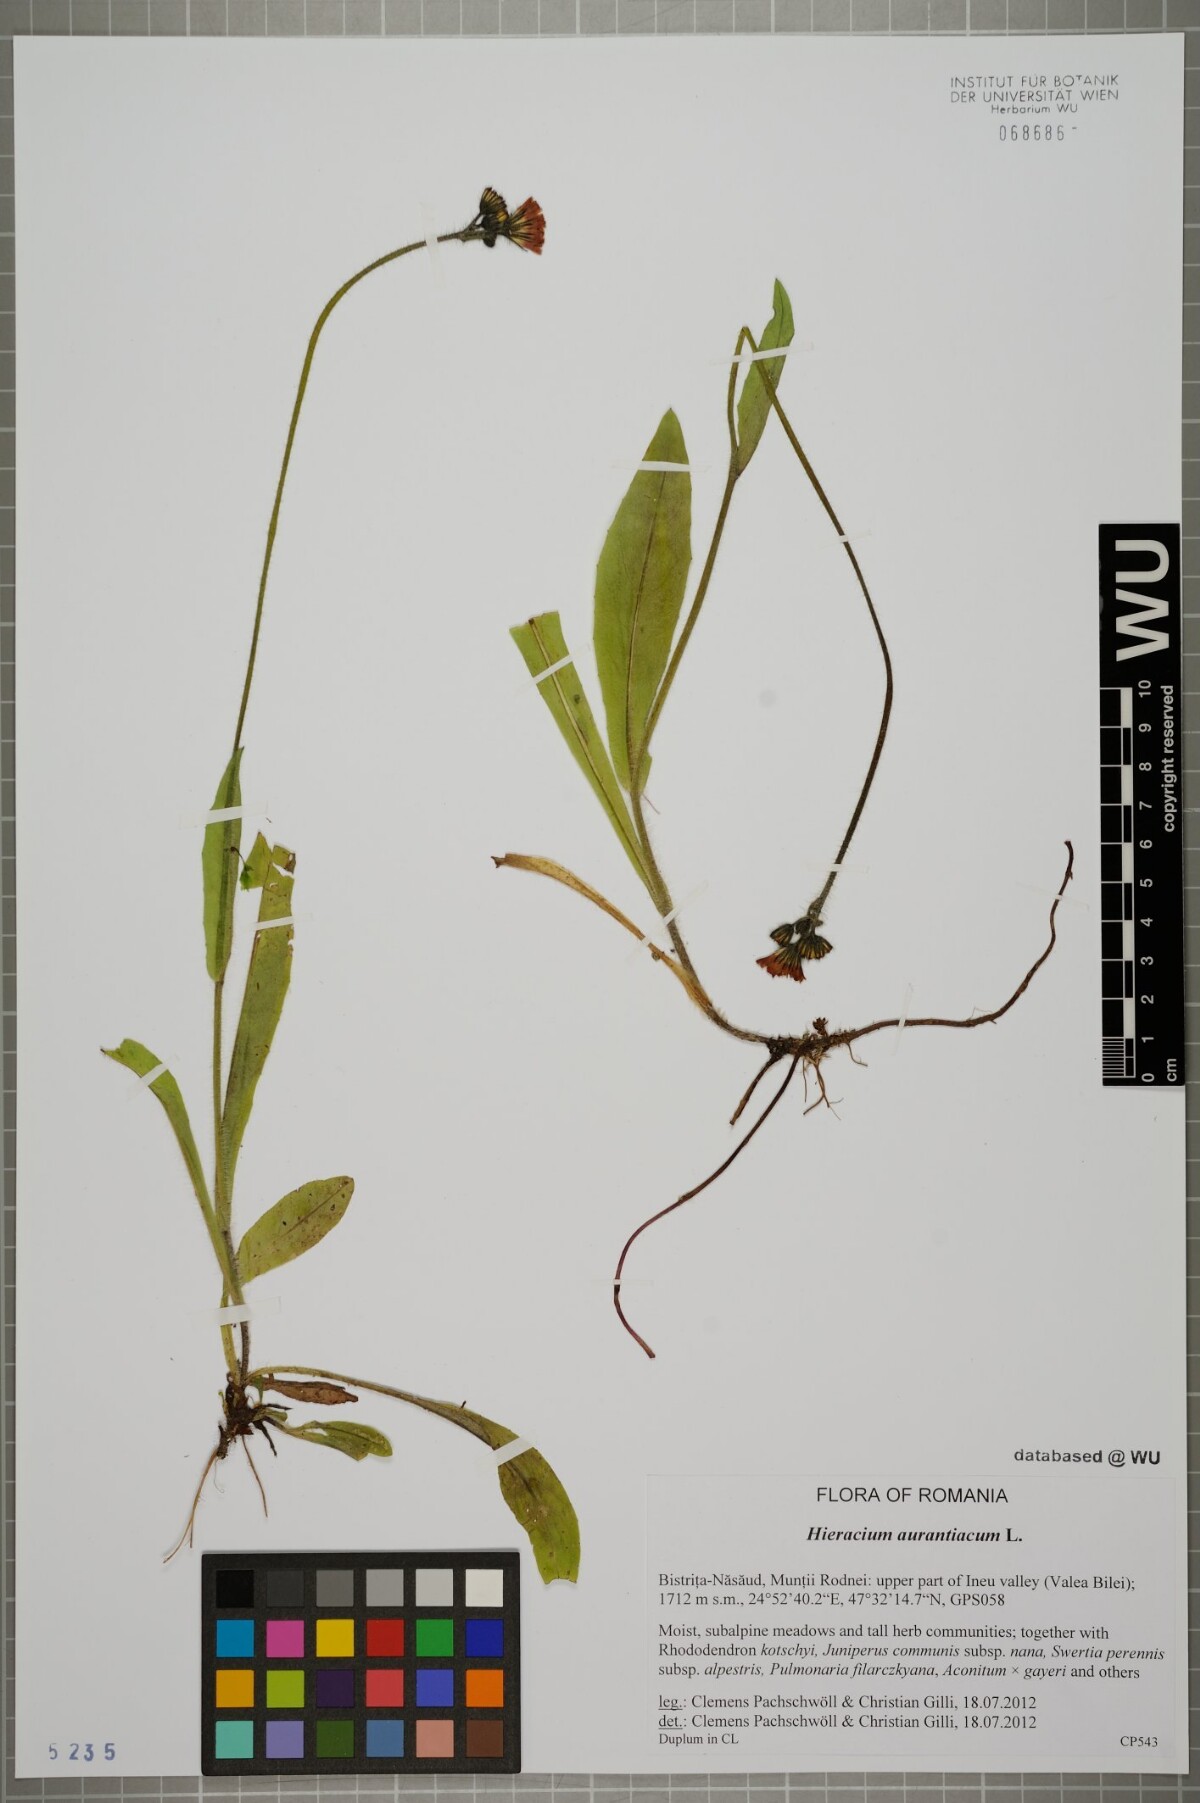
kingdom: Plantae
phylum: Tracheophyta
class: Magnoliopsida
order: Asterales
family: Asteraceae
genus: Pilosella
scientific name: Pilosella aurantiaca
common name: Fox-and-cubs
